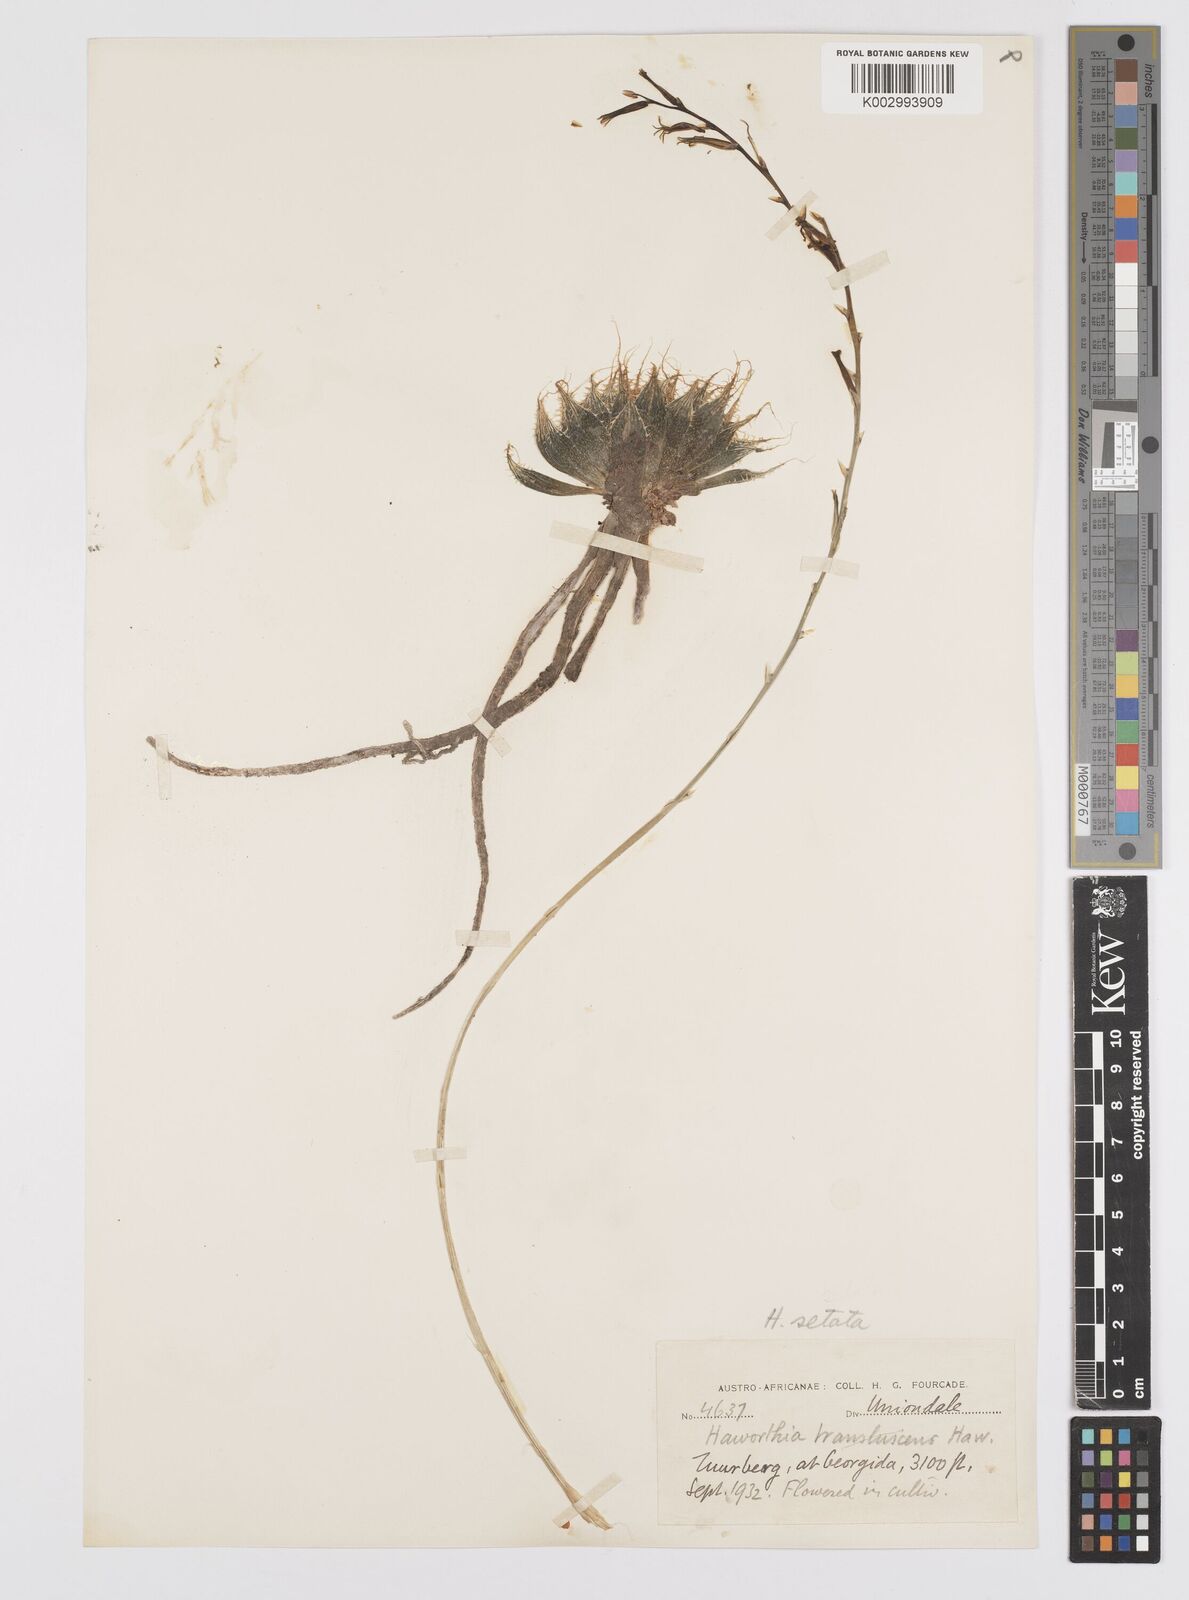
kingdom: Plantae
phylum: Tracheophyta
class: Liliopsida
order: Asparagales
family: Asphodelaceae
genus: Haworthia
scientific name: Haworthia arachnoidea
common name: Cobweb-aloe
